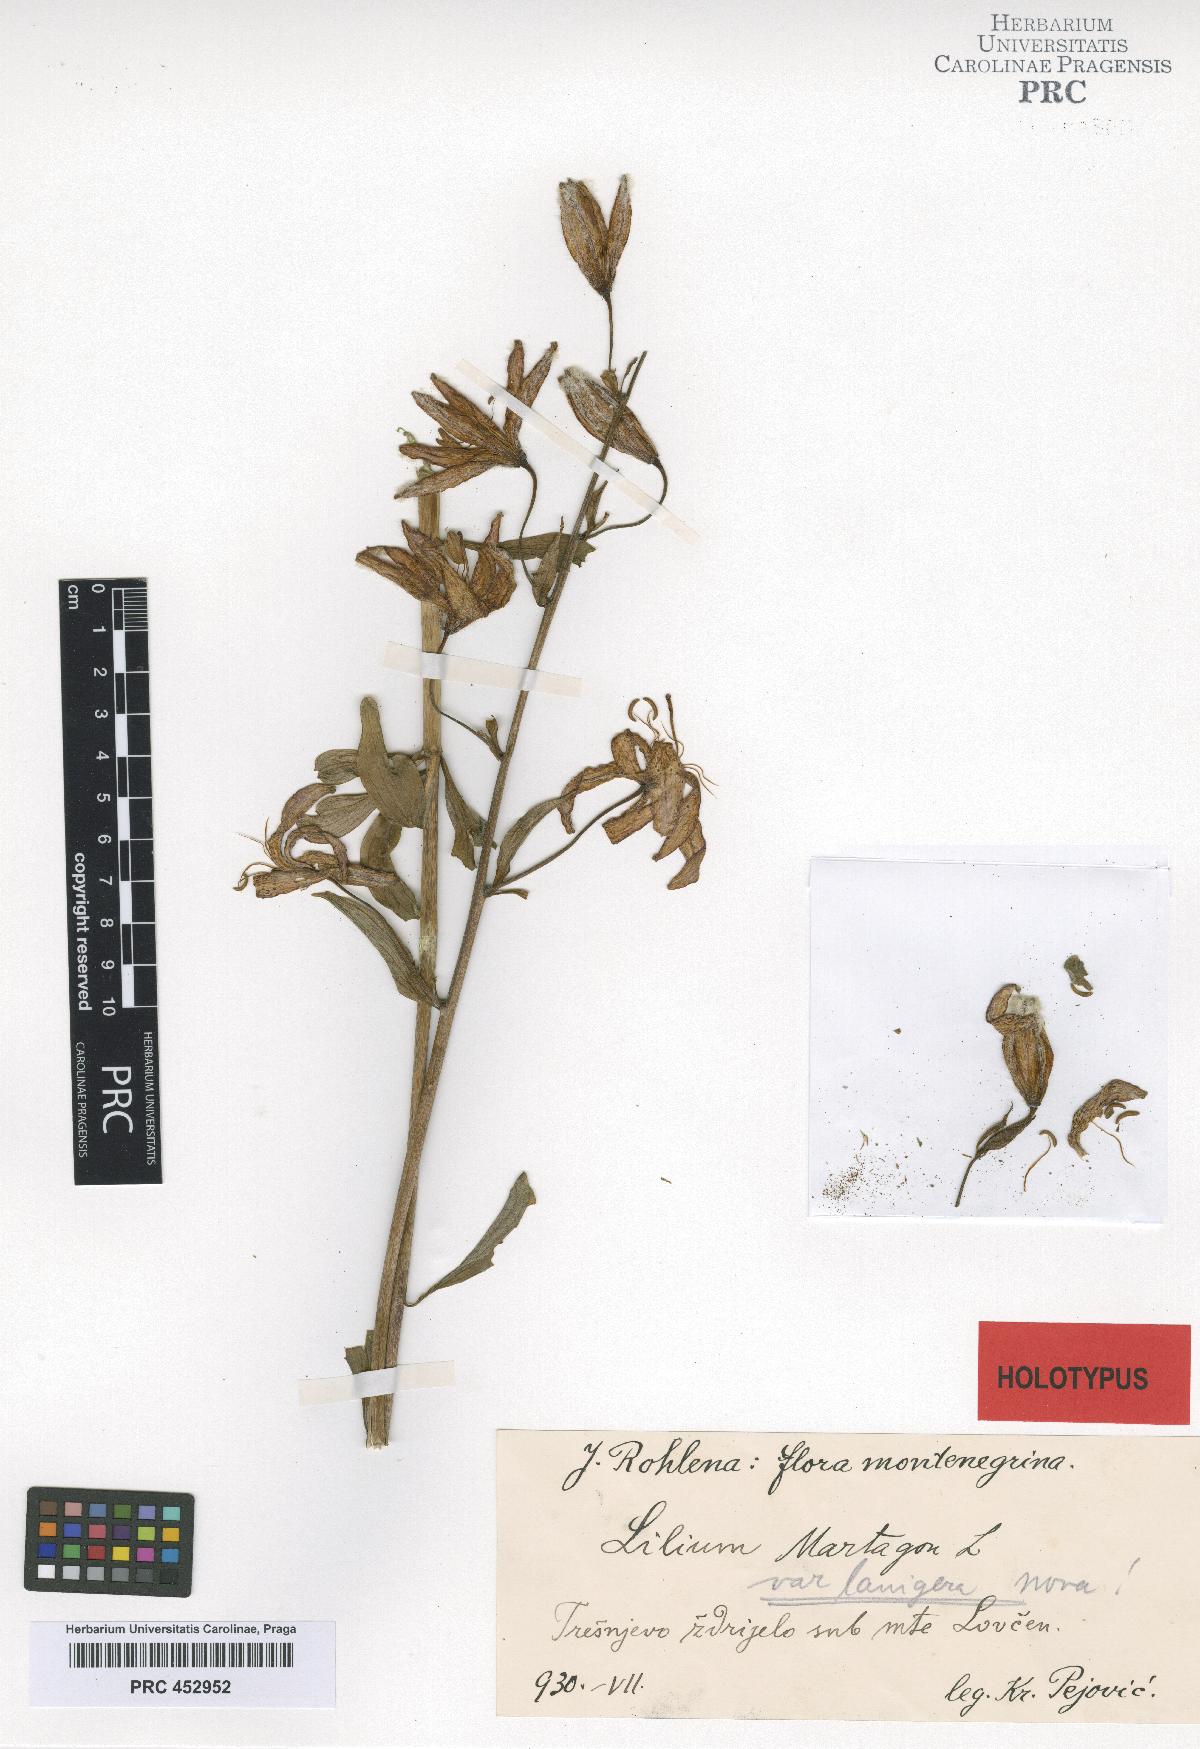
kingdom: Plantae
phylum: Tracheophyta
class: Liliopsida
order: Liliales
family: Liliaceae
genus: Lilium
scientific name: Lilium martagon
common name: Martagon lily
